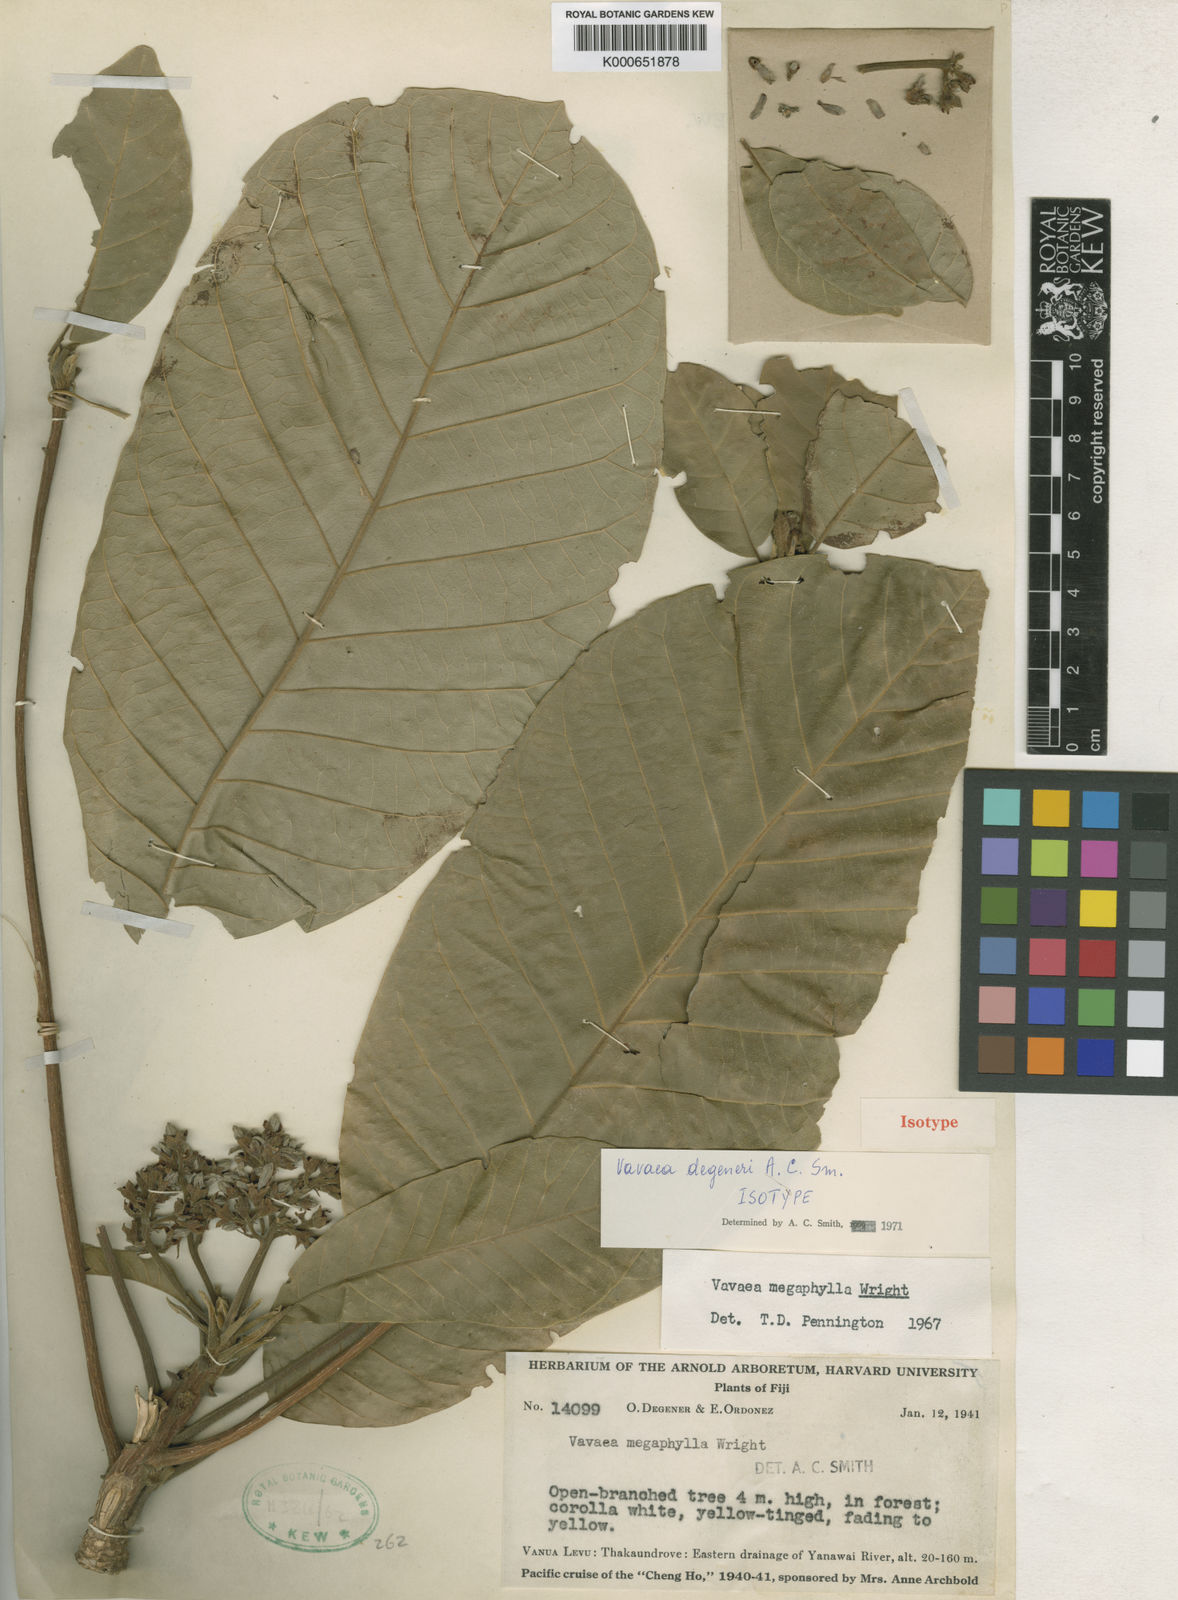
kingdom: Plantae
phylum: Tracheophyta
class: Magnoliopsida
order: Sapindales
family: Meliaceae
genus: Vavaea
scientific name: Vavaea megaphylla
